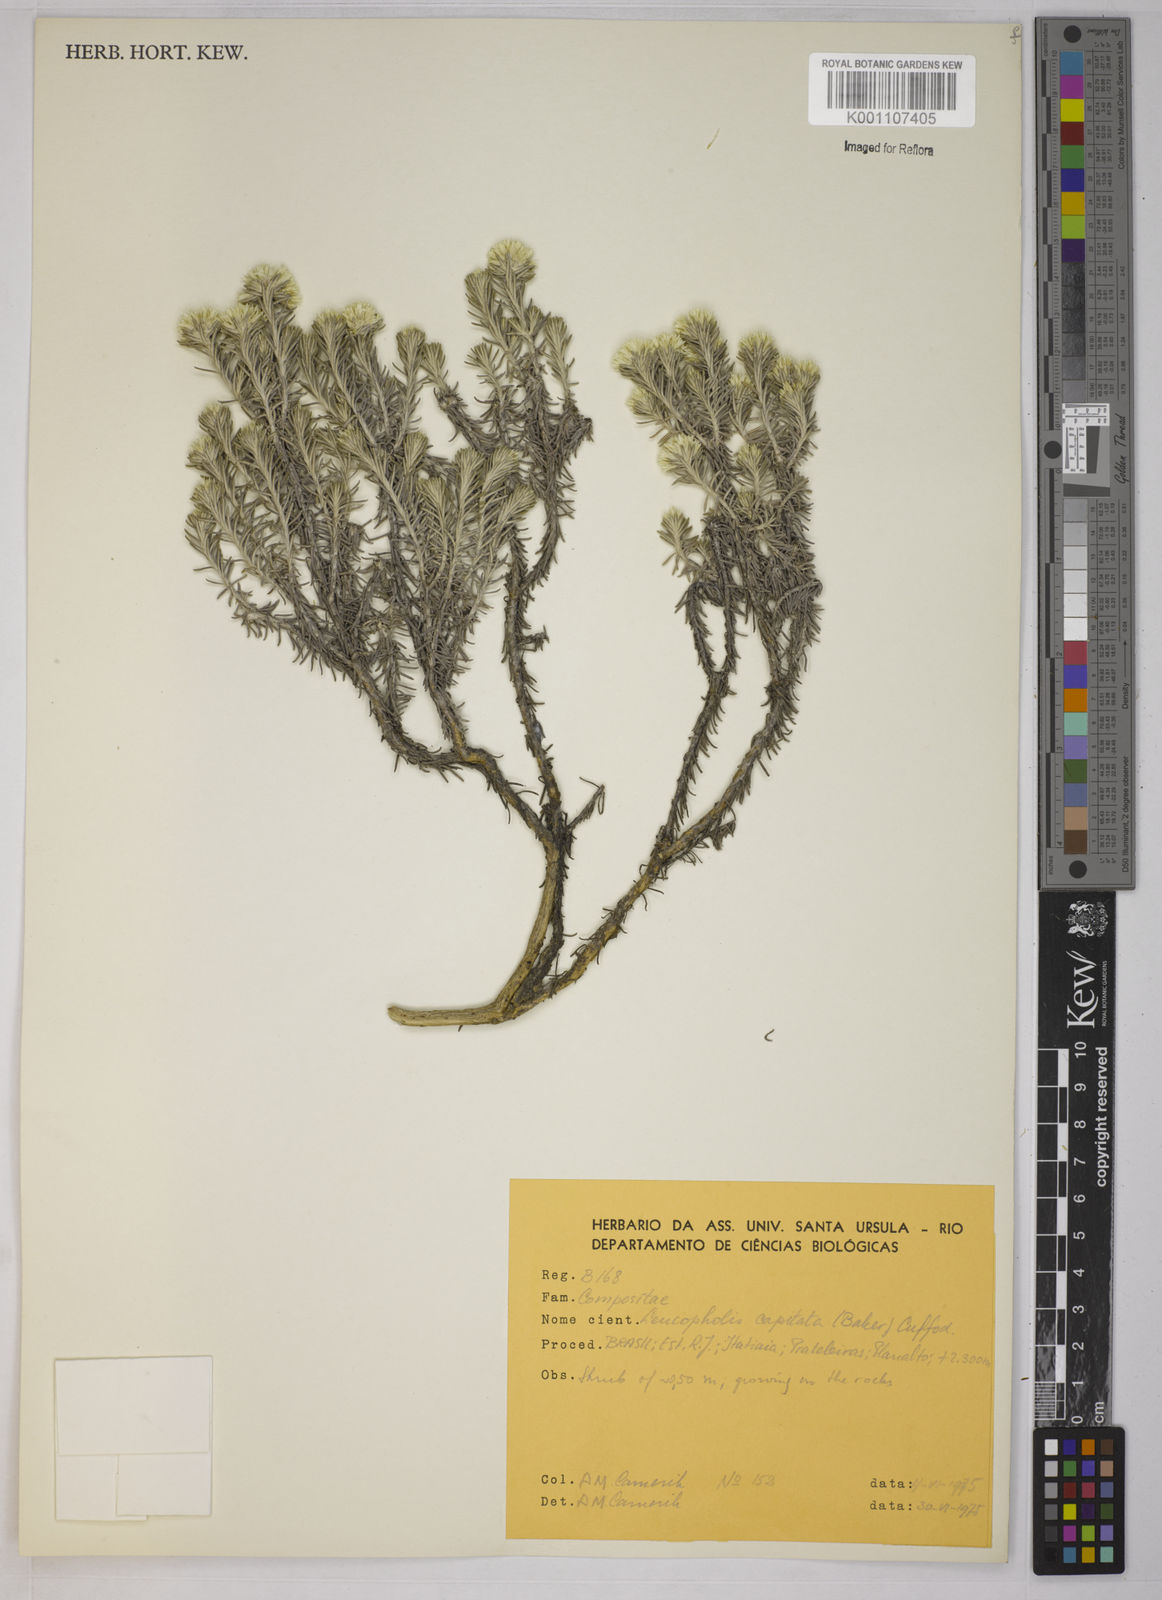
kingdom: Plantae
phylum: Tracheophyta
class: Magnoliopsida
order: Asterales
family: Asteraceae
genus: Chionolaena
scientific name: Chionolaena capitata
